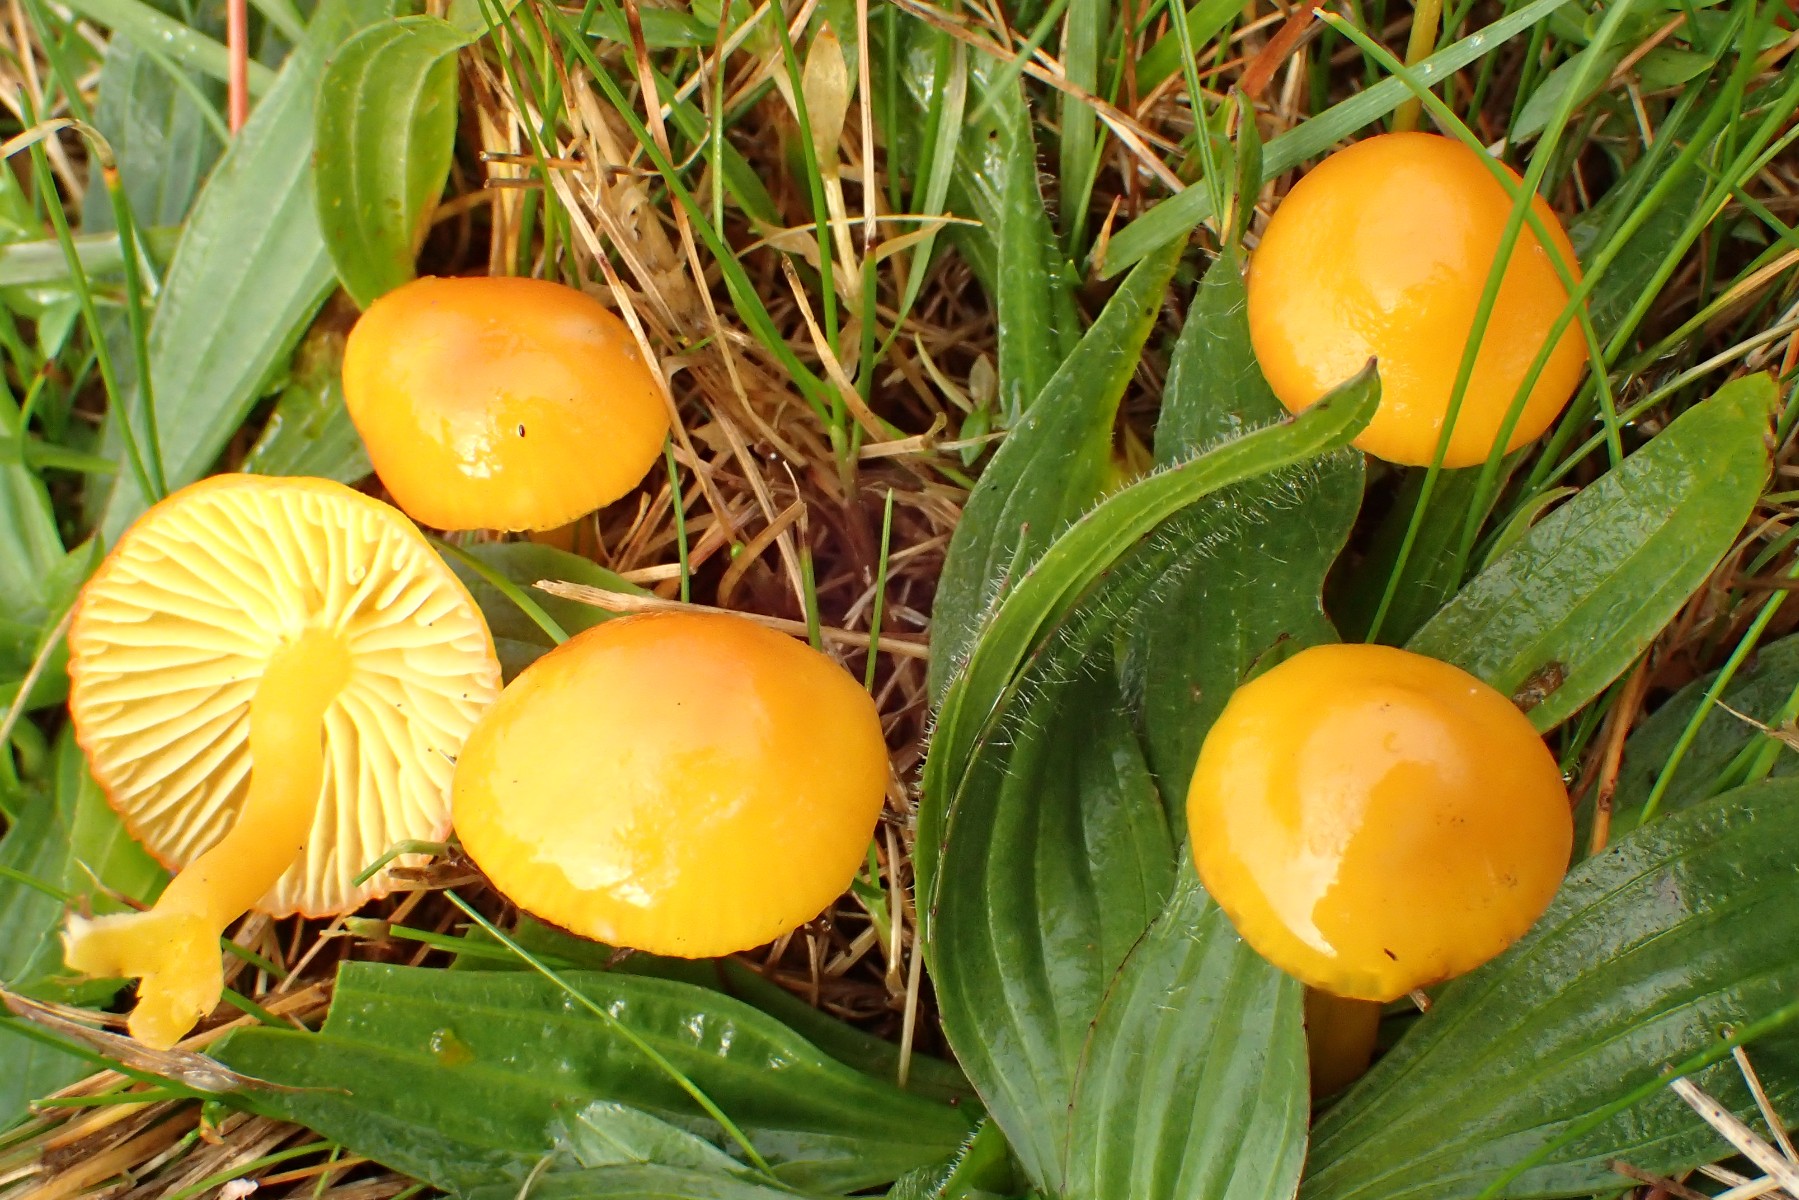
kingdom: Fungi
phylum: Basidiomycota
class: Agaricomycetes
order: Agaricales
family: Hygrophoraceae
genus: Hygrocybe
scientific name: Hygrocybe ceracea
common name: voksgul vokshat
